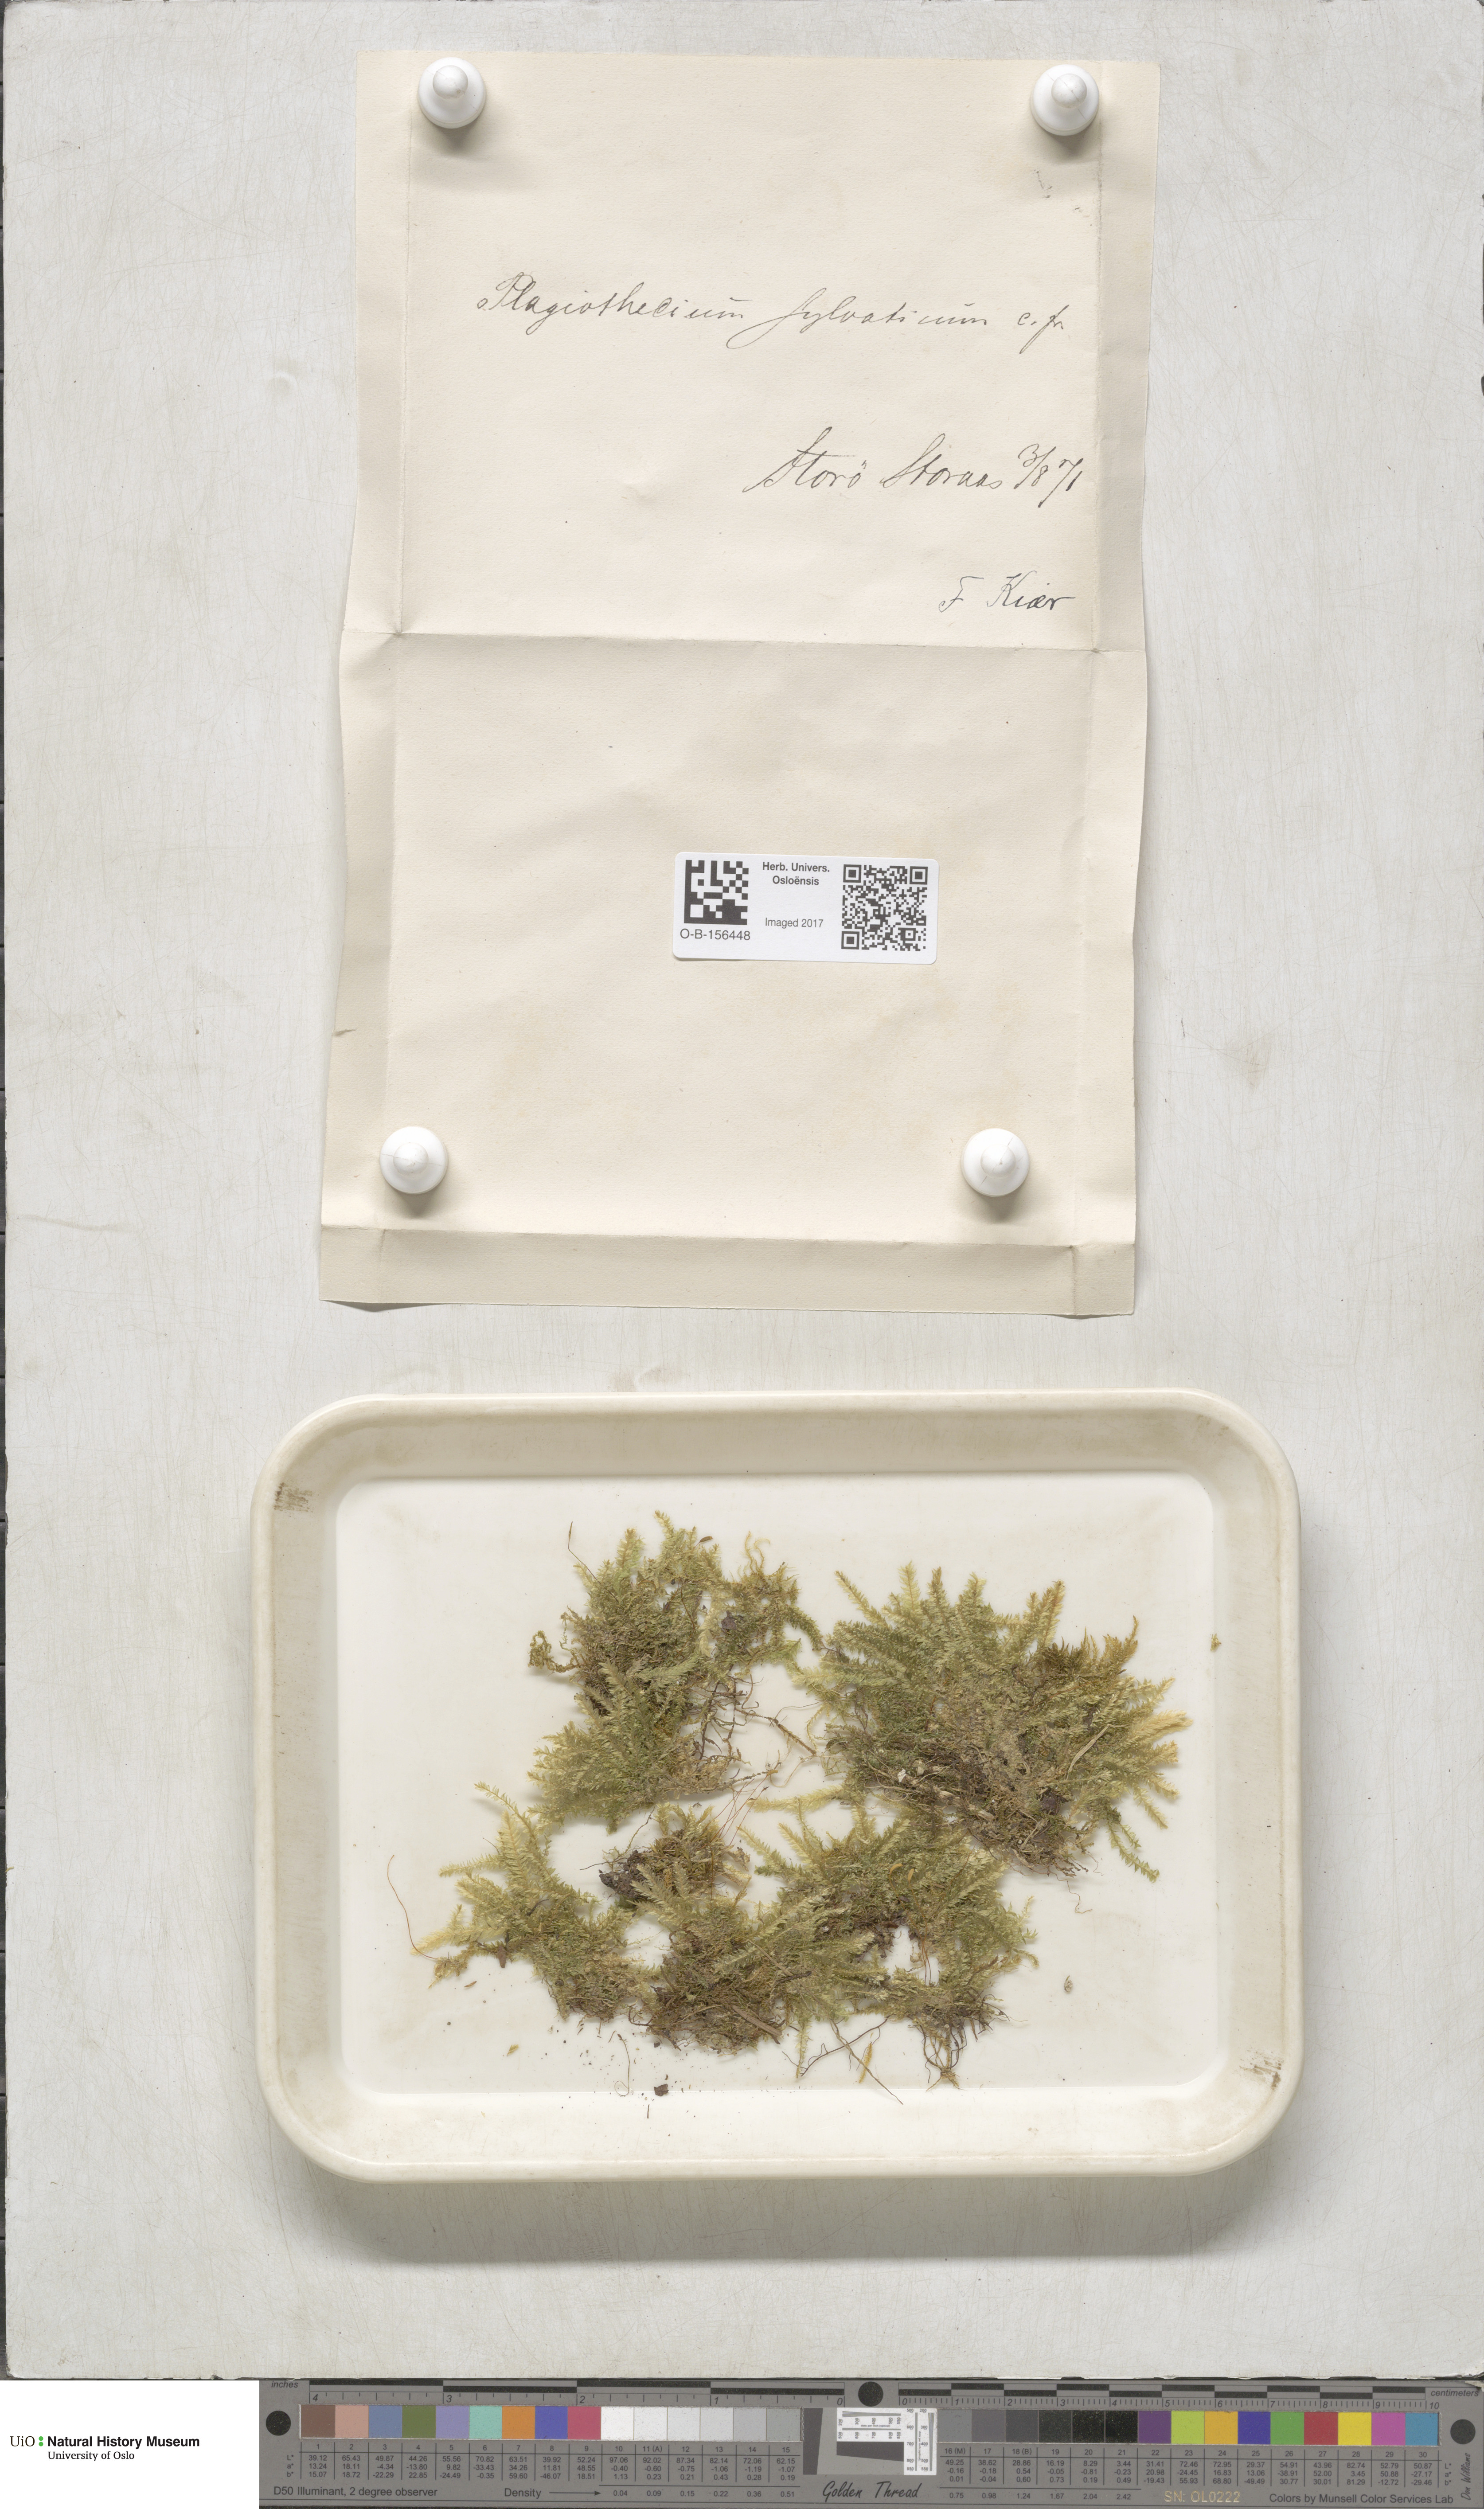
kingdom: Plantae
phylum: Bryophyta
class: Bryopsida
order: Hypnales
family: Plagiotheciaceae
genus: Plagiothecium
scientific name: Plagiothecium nemorale
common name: Woodsy silk-moss
